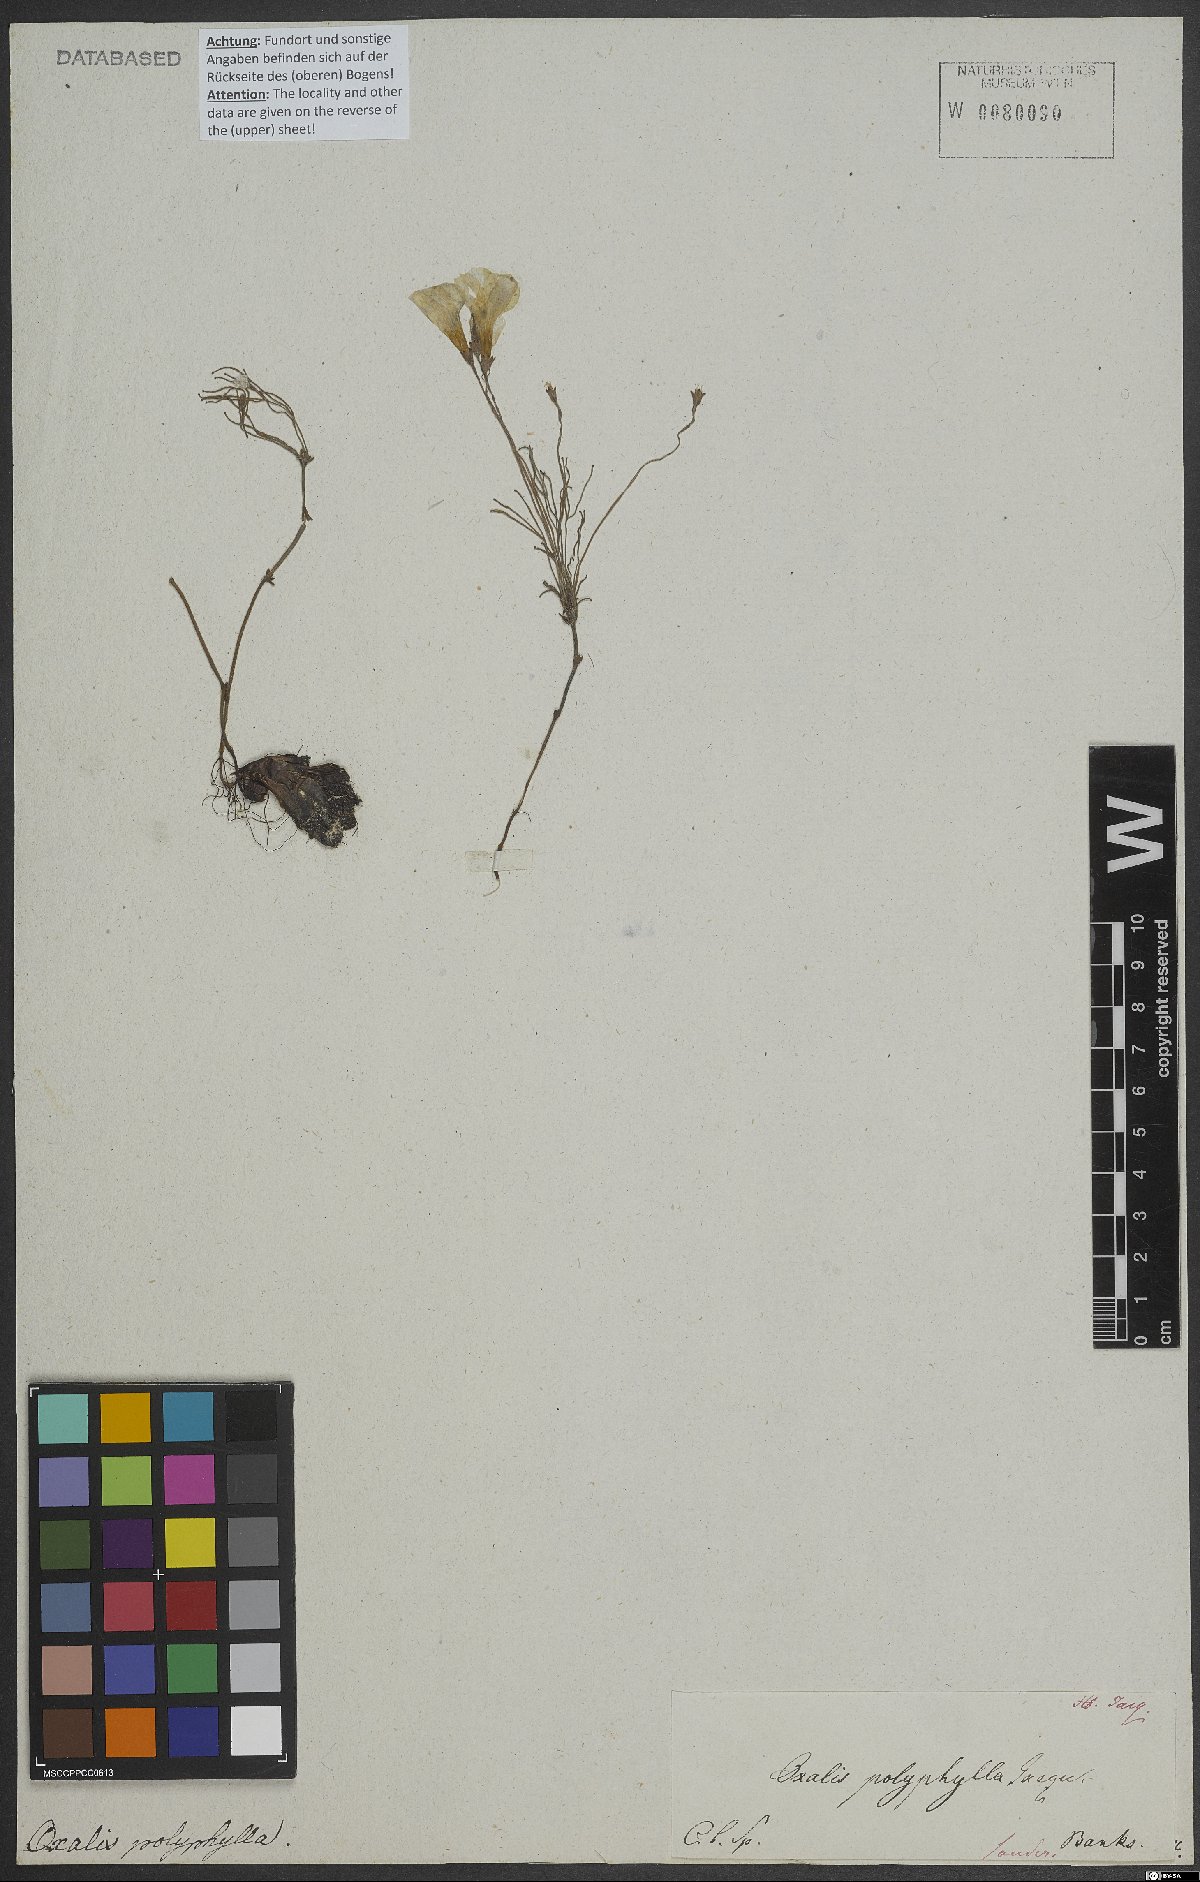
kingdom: Plantae
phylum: Tracheophyta
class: Magnoliopsida
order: Oxalidales
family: Oxalidaceae
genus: Oxalis
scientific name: Oxalis polyphylla
